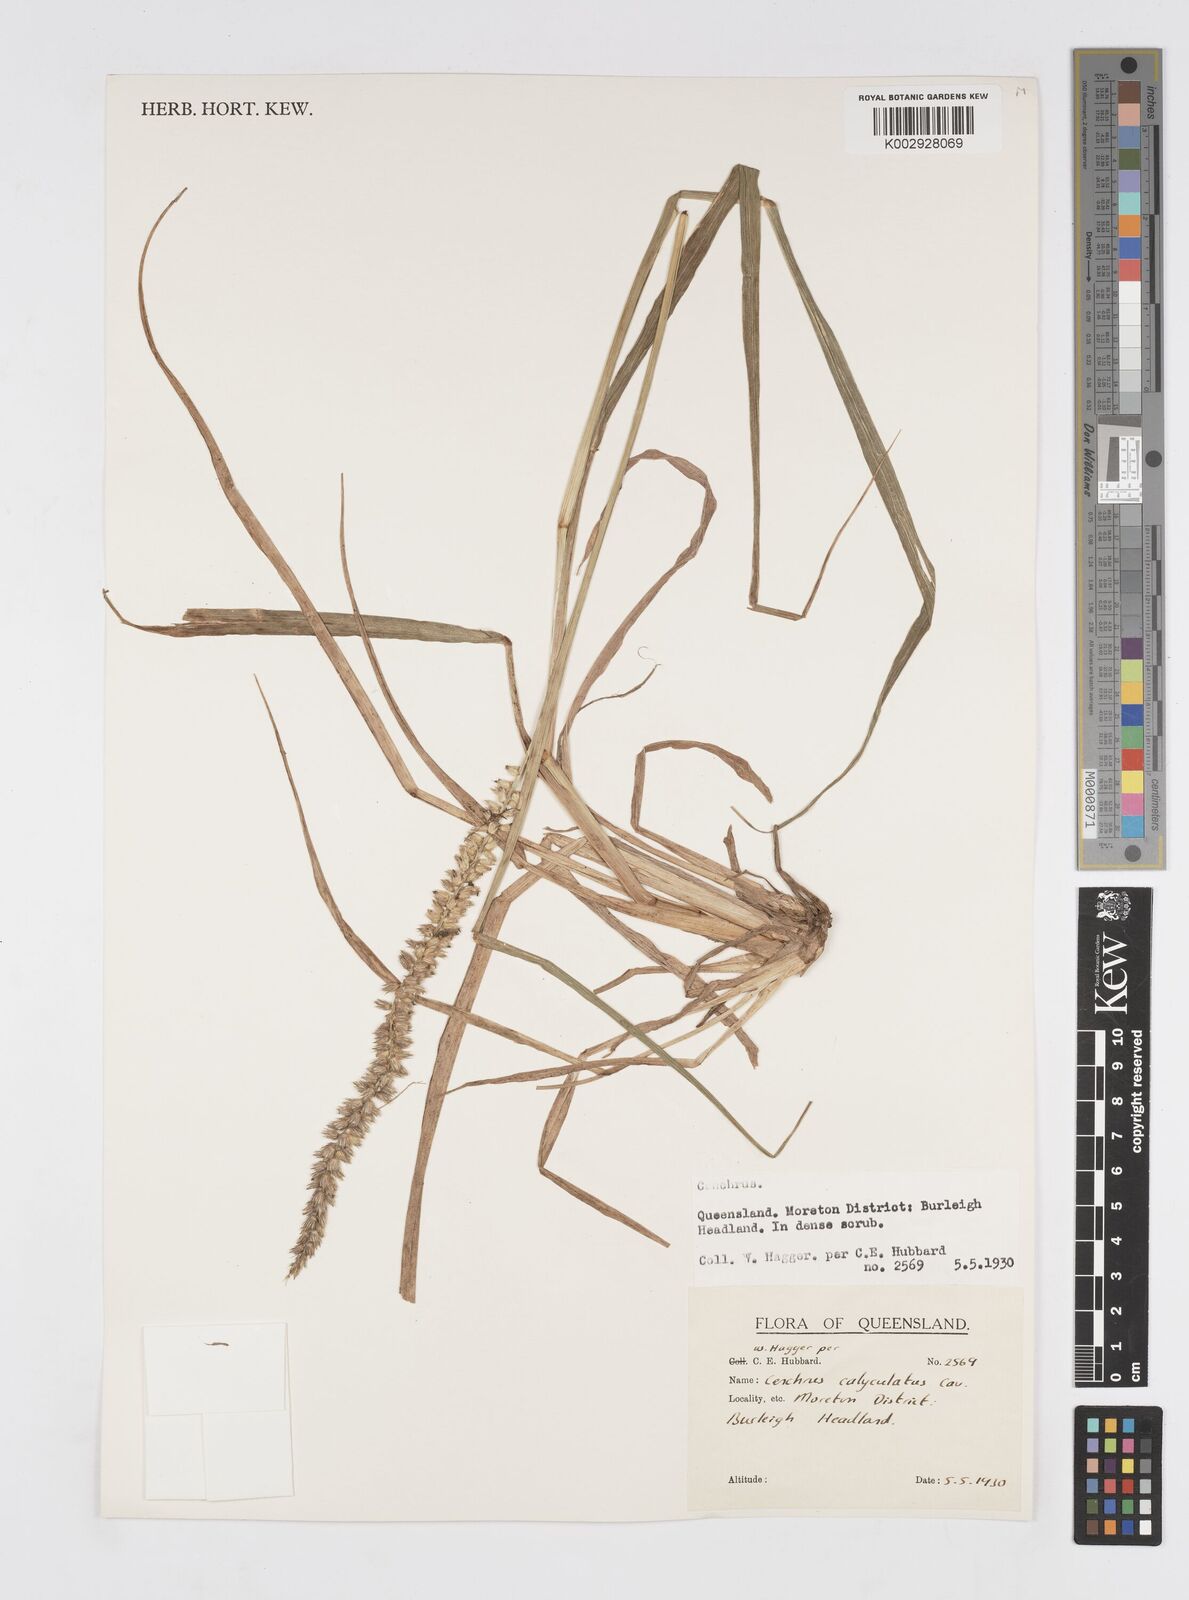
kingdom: Plantae
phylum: Tracheophyta
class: Liliopsida
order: Poales
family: Poaceae
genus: Cenchrus
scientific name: Cenchrus caliculatus
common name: Large bur grass
